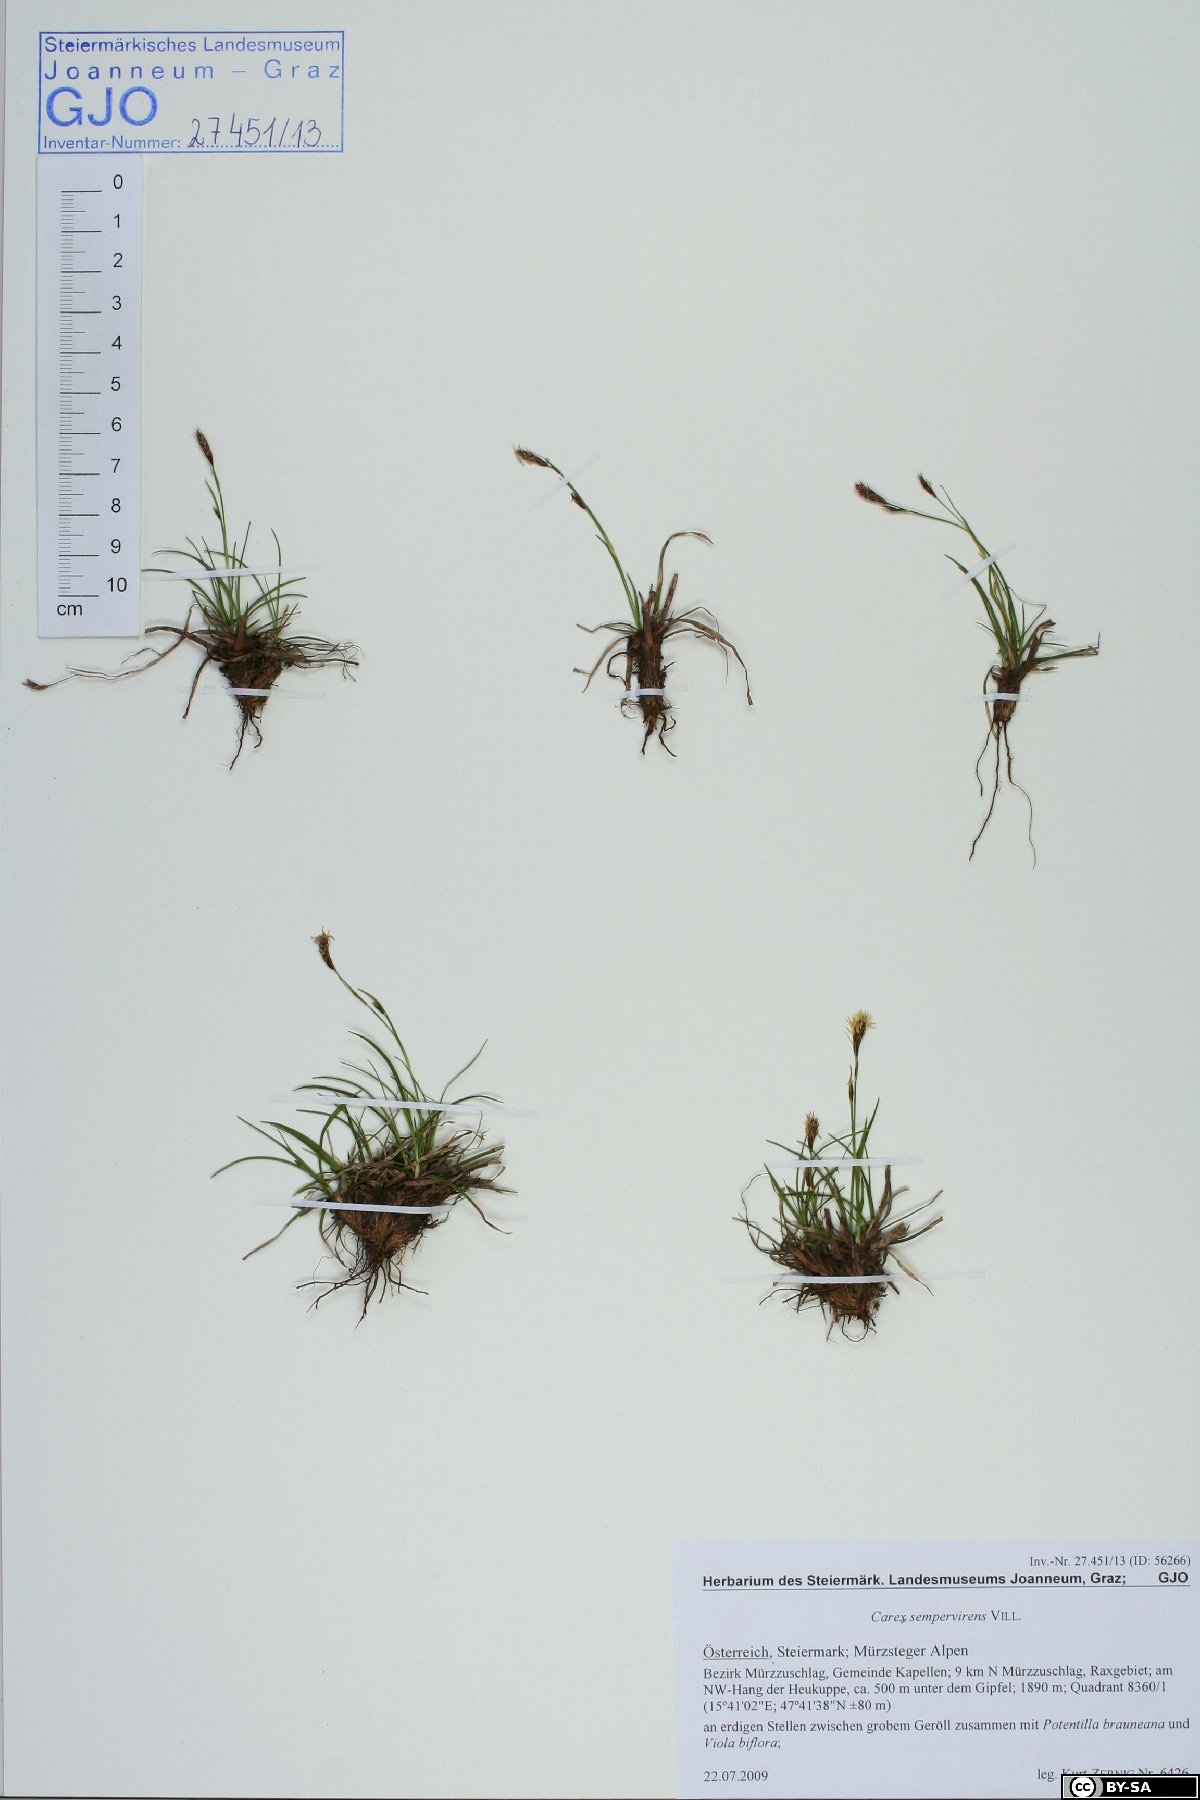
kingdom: Plantae
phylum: Tracheophyta
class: Liliopsida
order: Poales
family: Cyperaceae
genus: Carex
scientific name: Carex sempervirens
